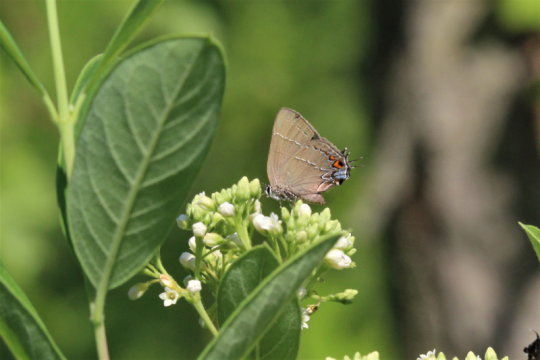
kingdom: Animalia
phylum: Arthropoda
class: Insecta
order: Lepidoptera
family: Lycaenidae
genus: Fixsenia
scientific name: Fixsenia favonius
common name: Oak Hairstreak
